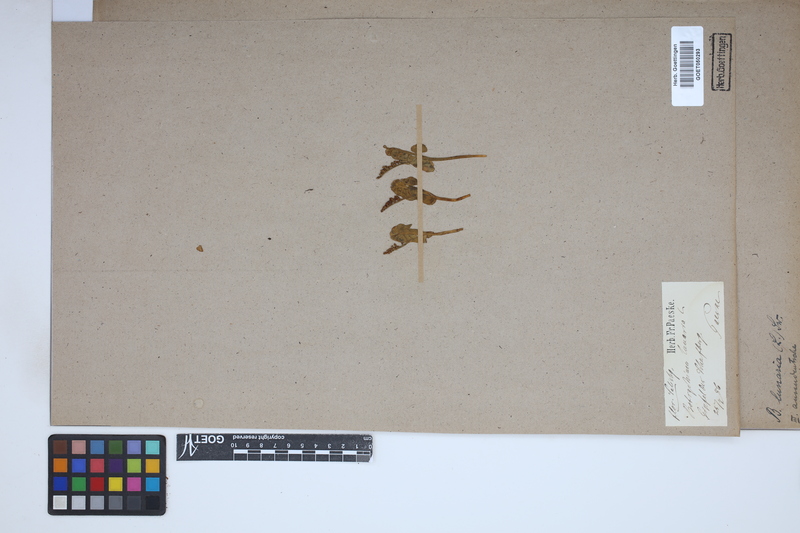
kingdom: Plantae
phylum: Tracheophyta
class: Polypodiopsida
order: Ophioglossales
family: Ophioglossaceae
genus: Botrychium
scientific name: Botrychium lunaria
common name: Moonwort
